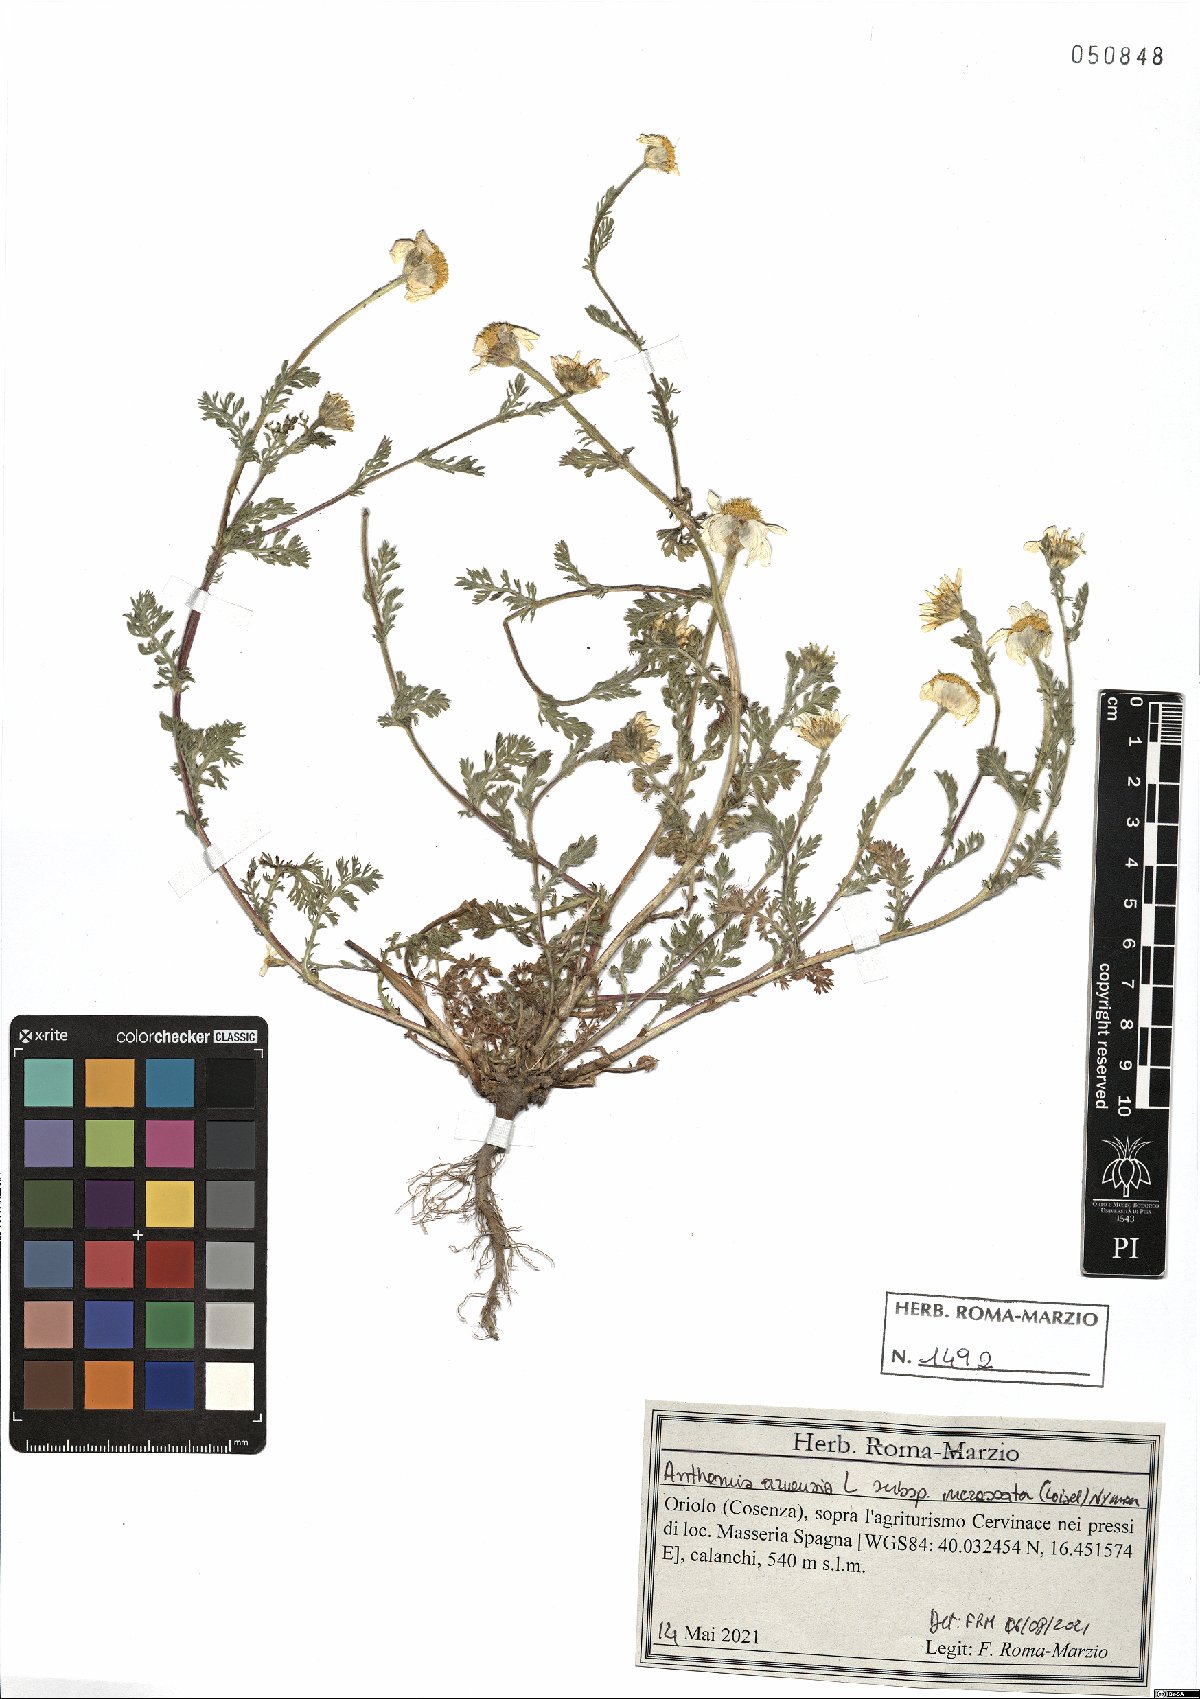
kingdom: Plantae
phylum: Tracheophyta
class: Magnoliopsida
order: Asterales
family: Asteraceae
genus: Anthemis
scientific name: Anthemis arvensis
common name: Corn chamomile
